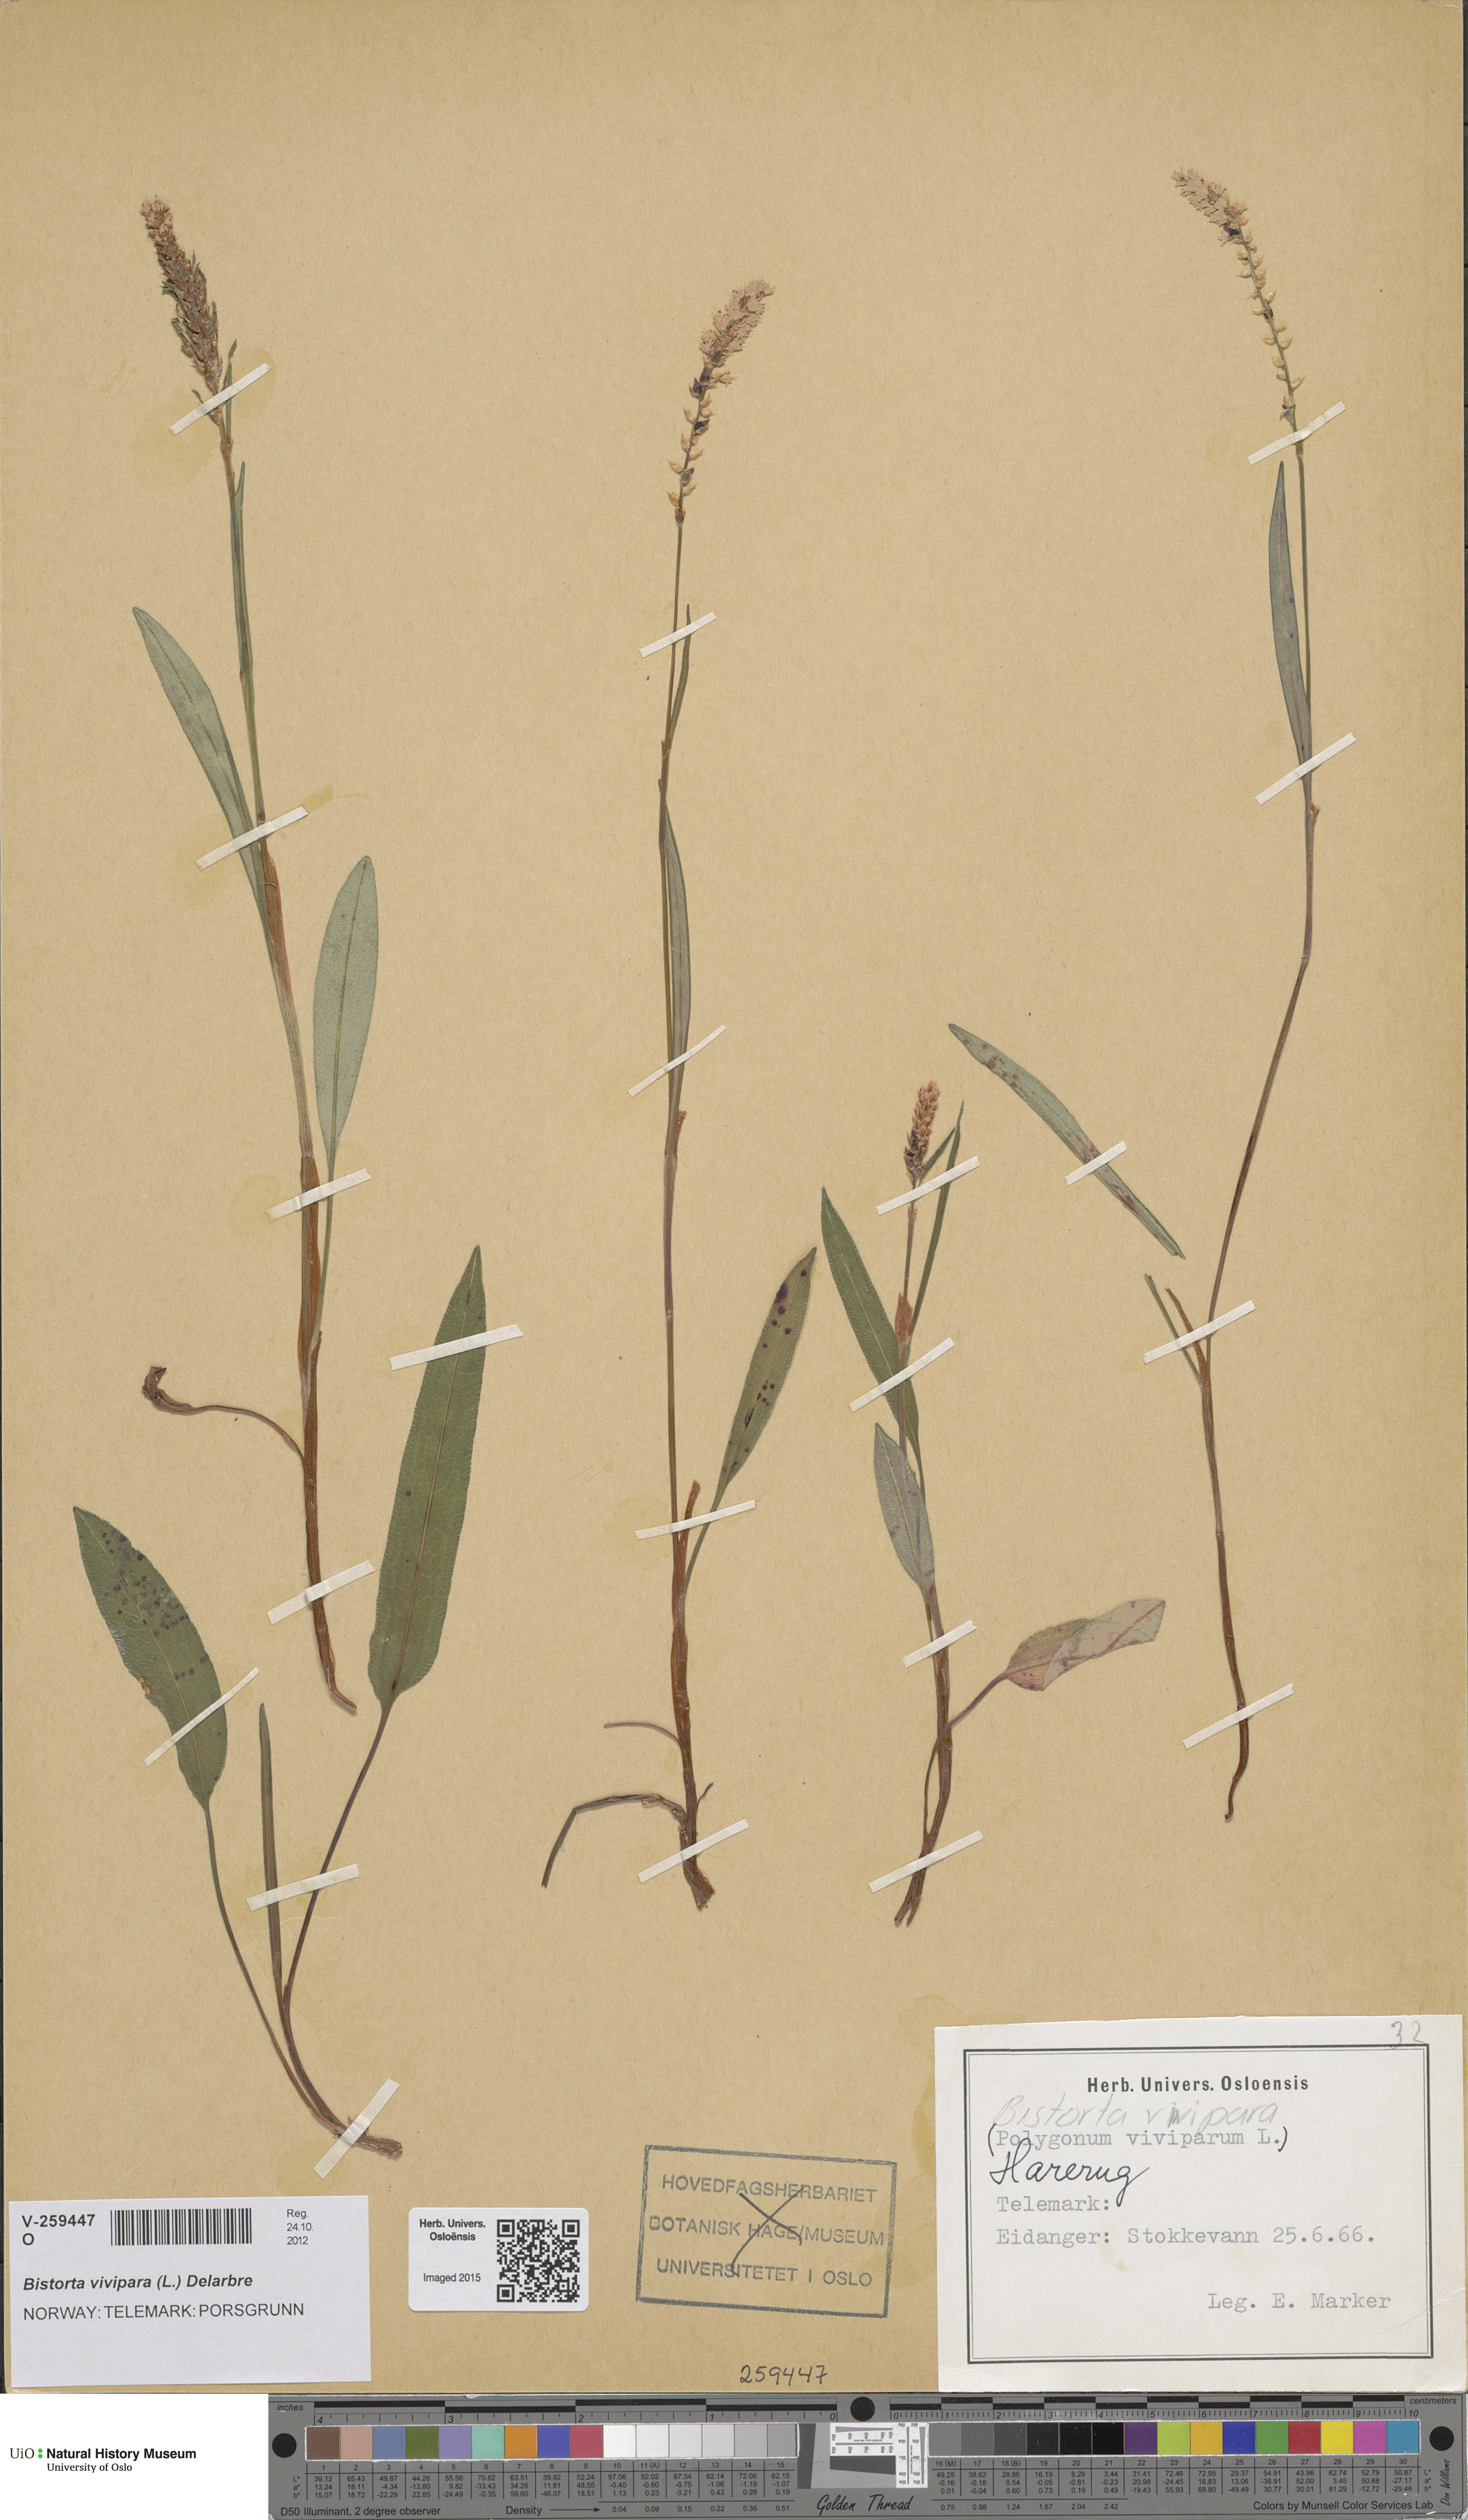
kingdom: Plantae
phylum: Tracheophyta
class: Magnoliopsida
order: Caryophyllales
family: Polygonaceae
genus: Bistorta
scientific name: Bistorta vivipara
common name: Alpine bistort
